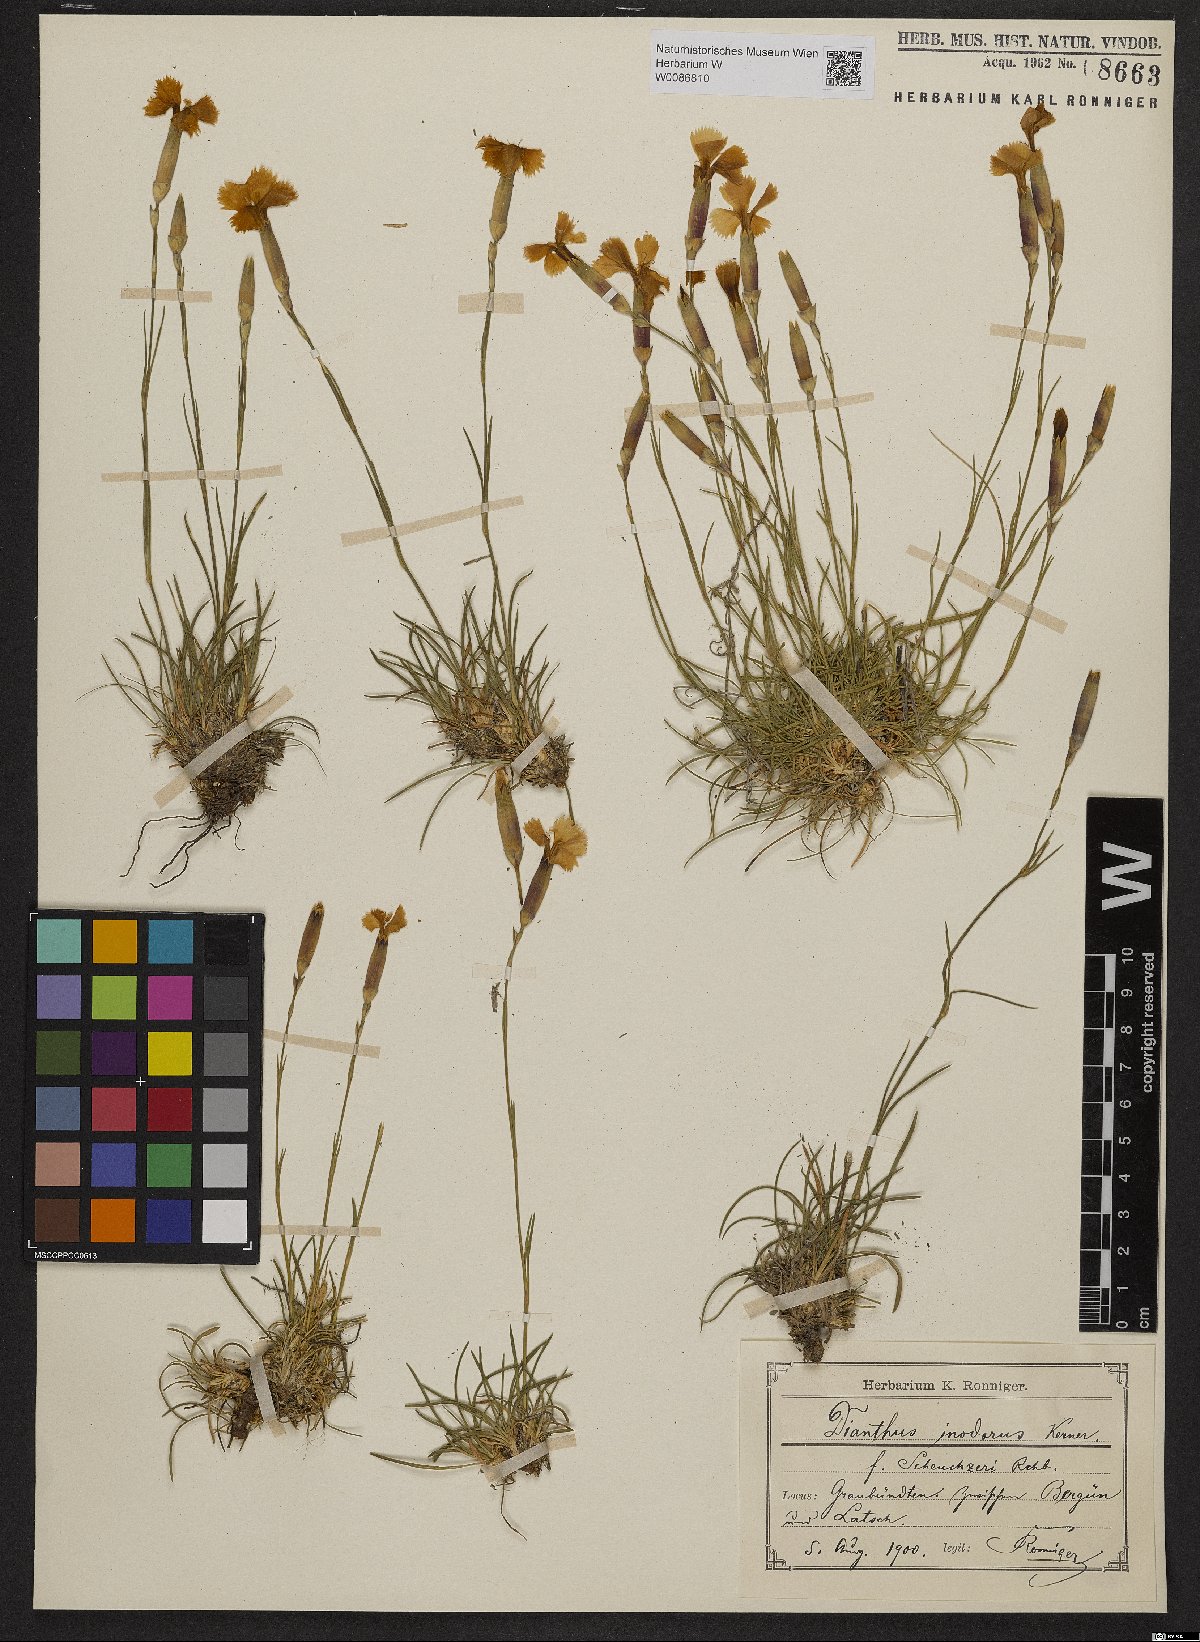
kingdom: Plantae
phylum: Tracheophyta
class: Magnoliopsida
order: Caryophyllales
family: Caryophyllaceae
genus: Dianthus
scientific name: Dianthus sylvestris
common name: Wood pink
